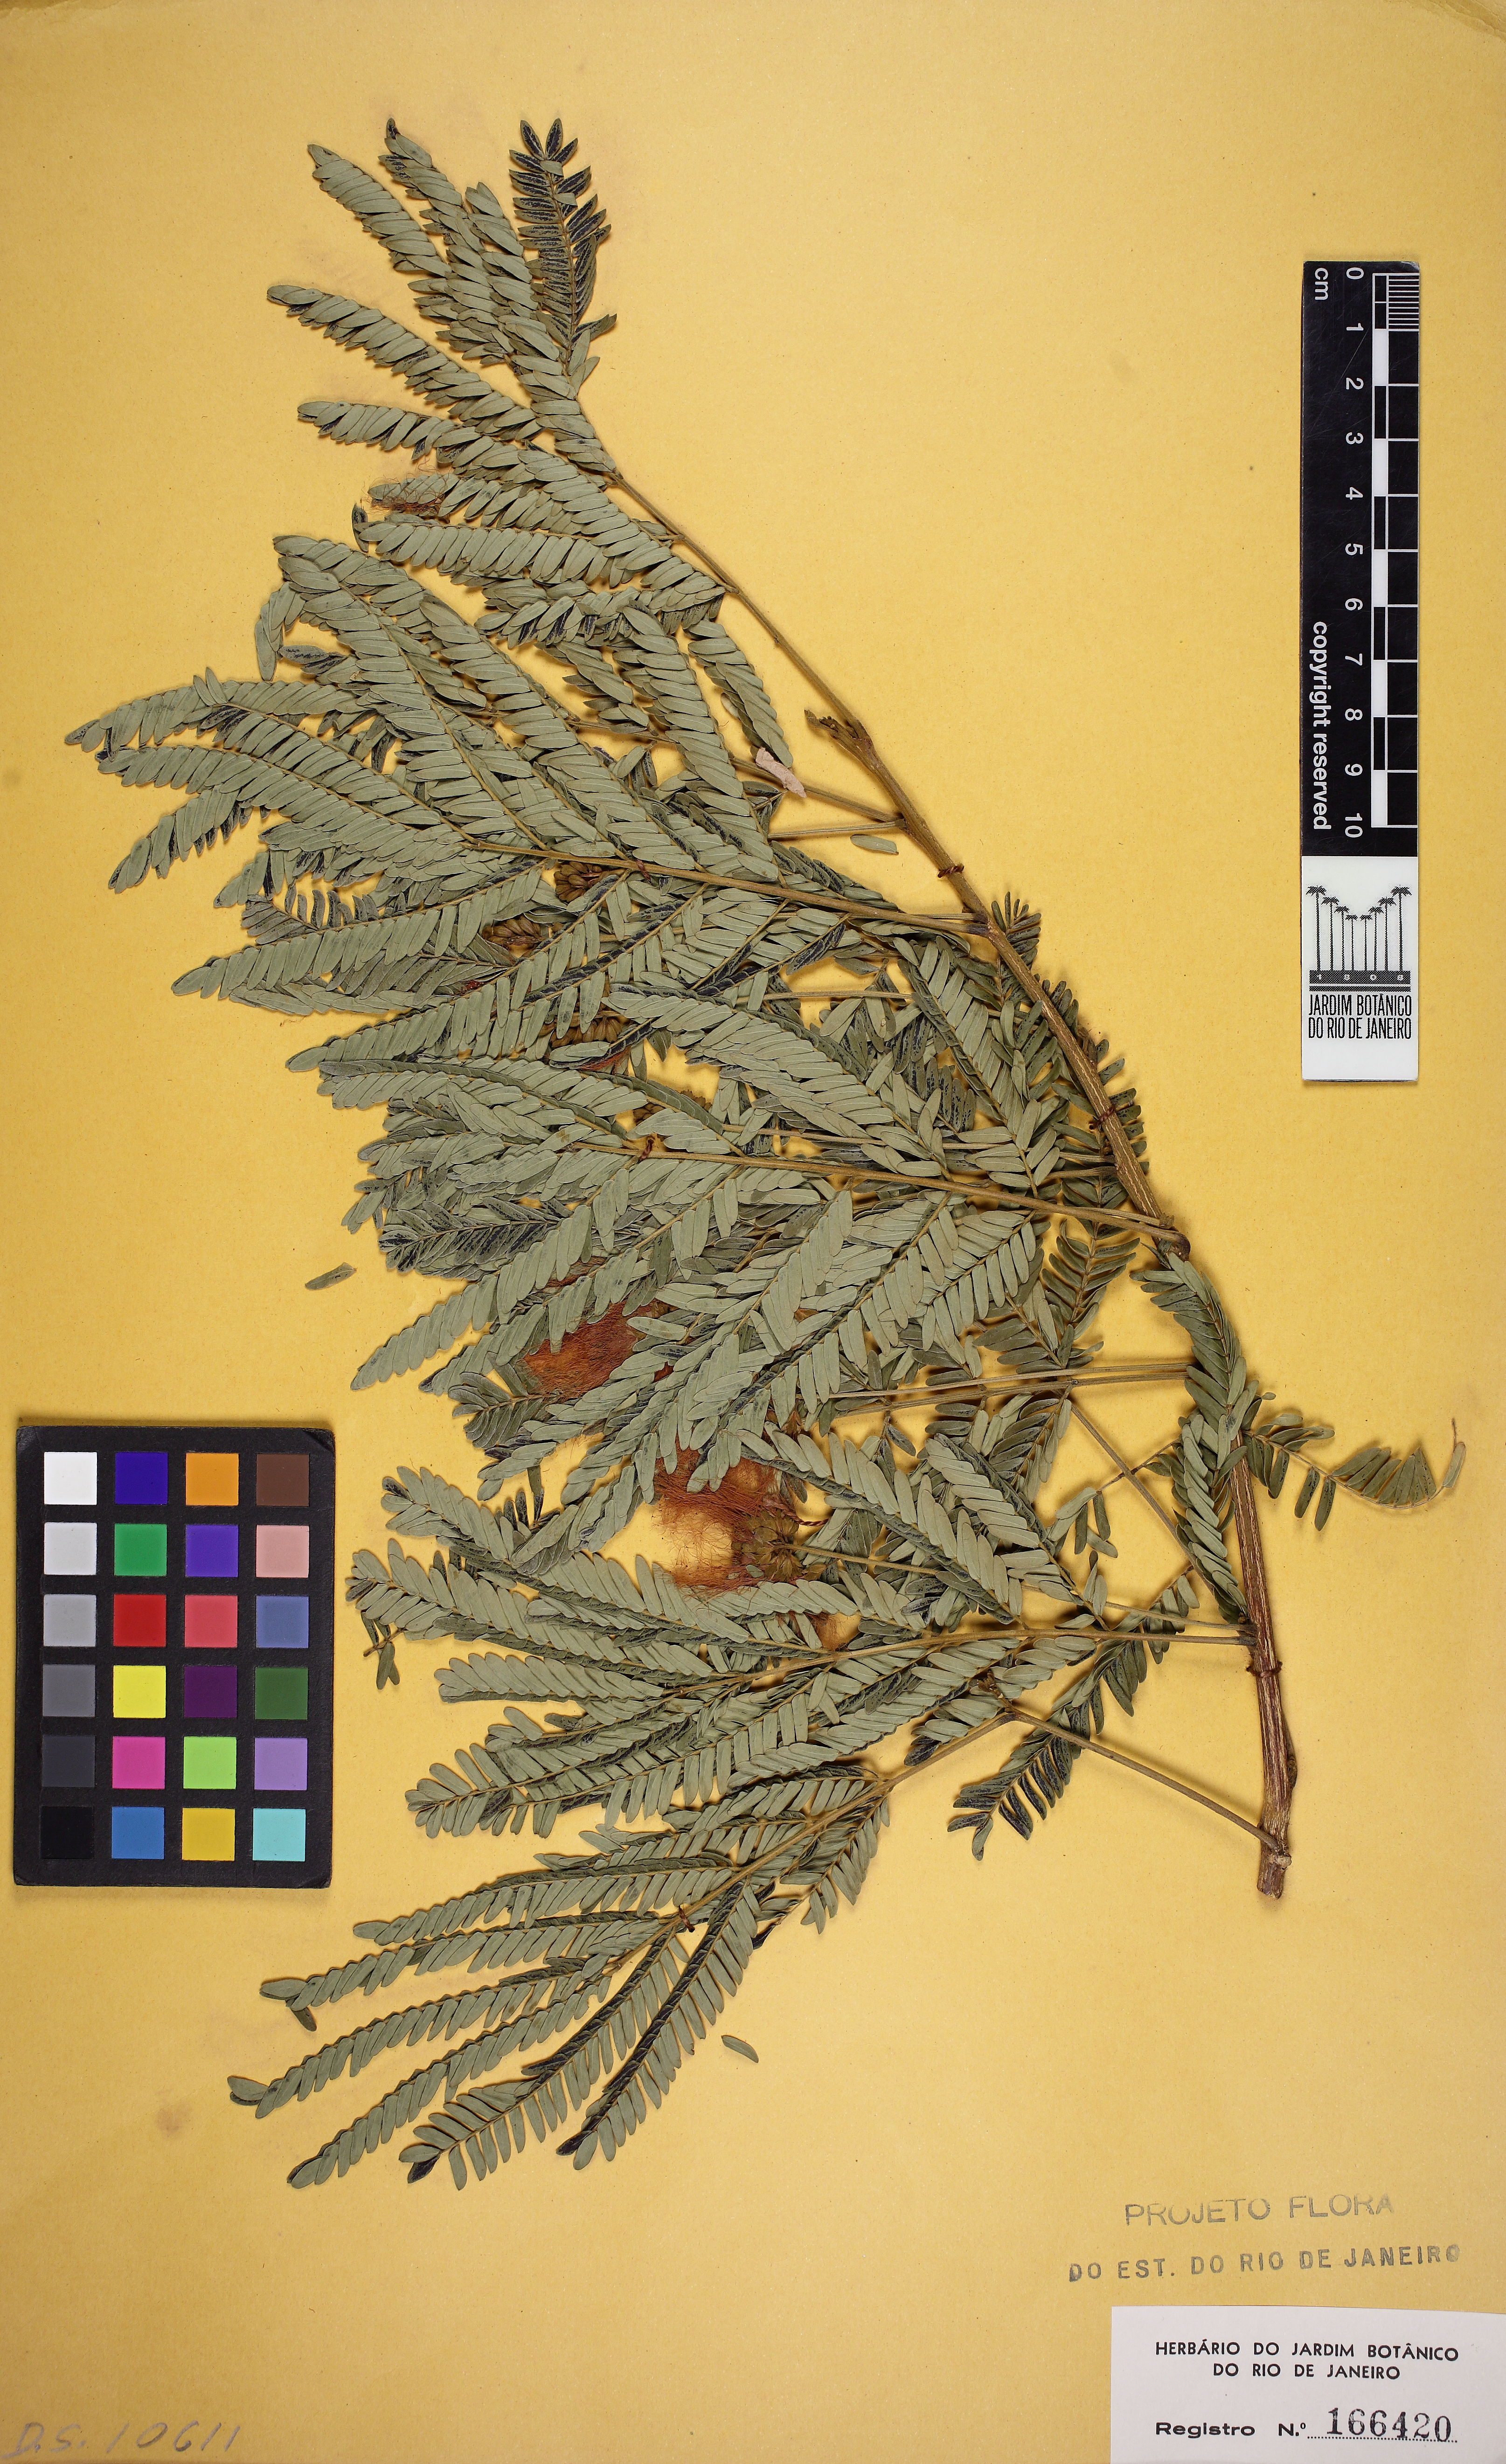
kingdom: Plantae
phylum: Tracheophyta
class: Magnoliopsida
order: Fabales
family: Fabaceae
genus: Jupunba
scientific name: Jupunba langsdorffii
